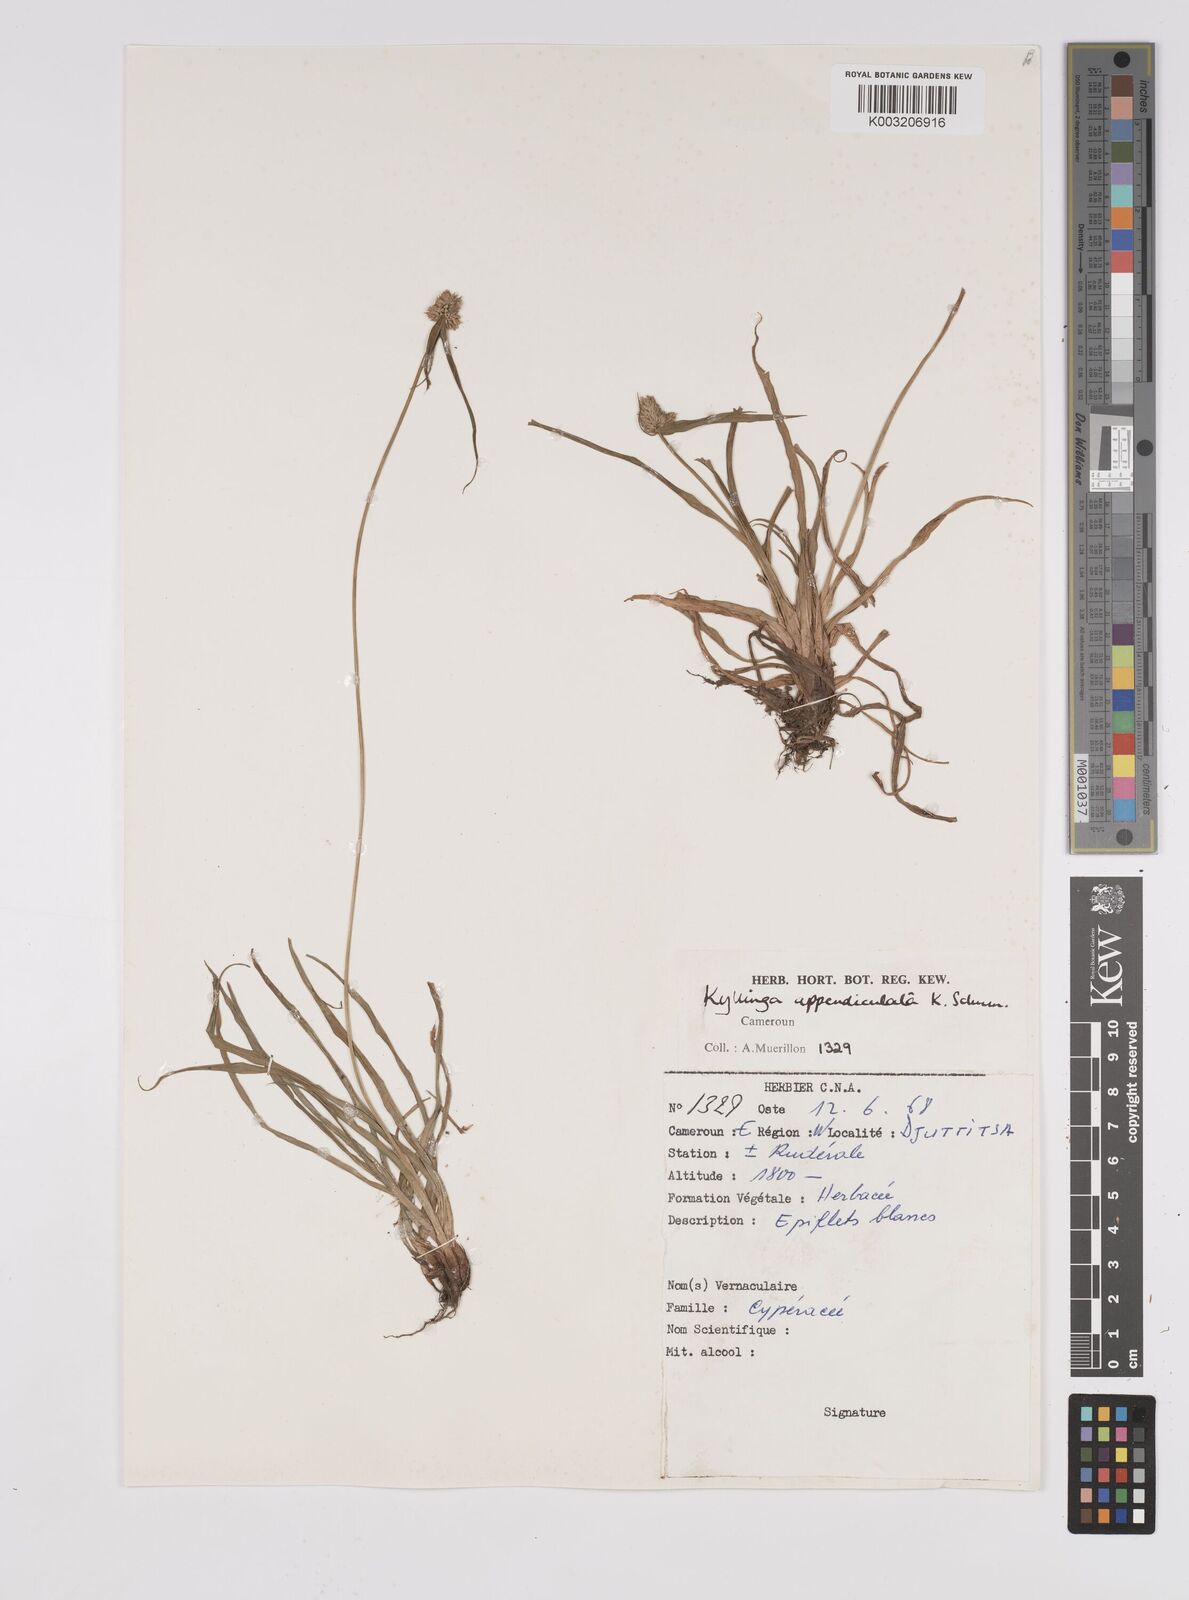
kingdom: Plantae
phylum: Tracheophyta
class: Liliopsida
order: Poales
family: Cyperaceae
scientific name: Cyperaceae
